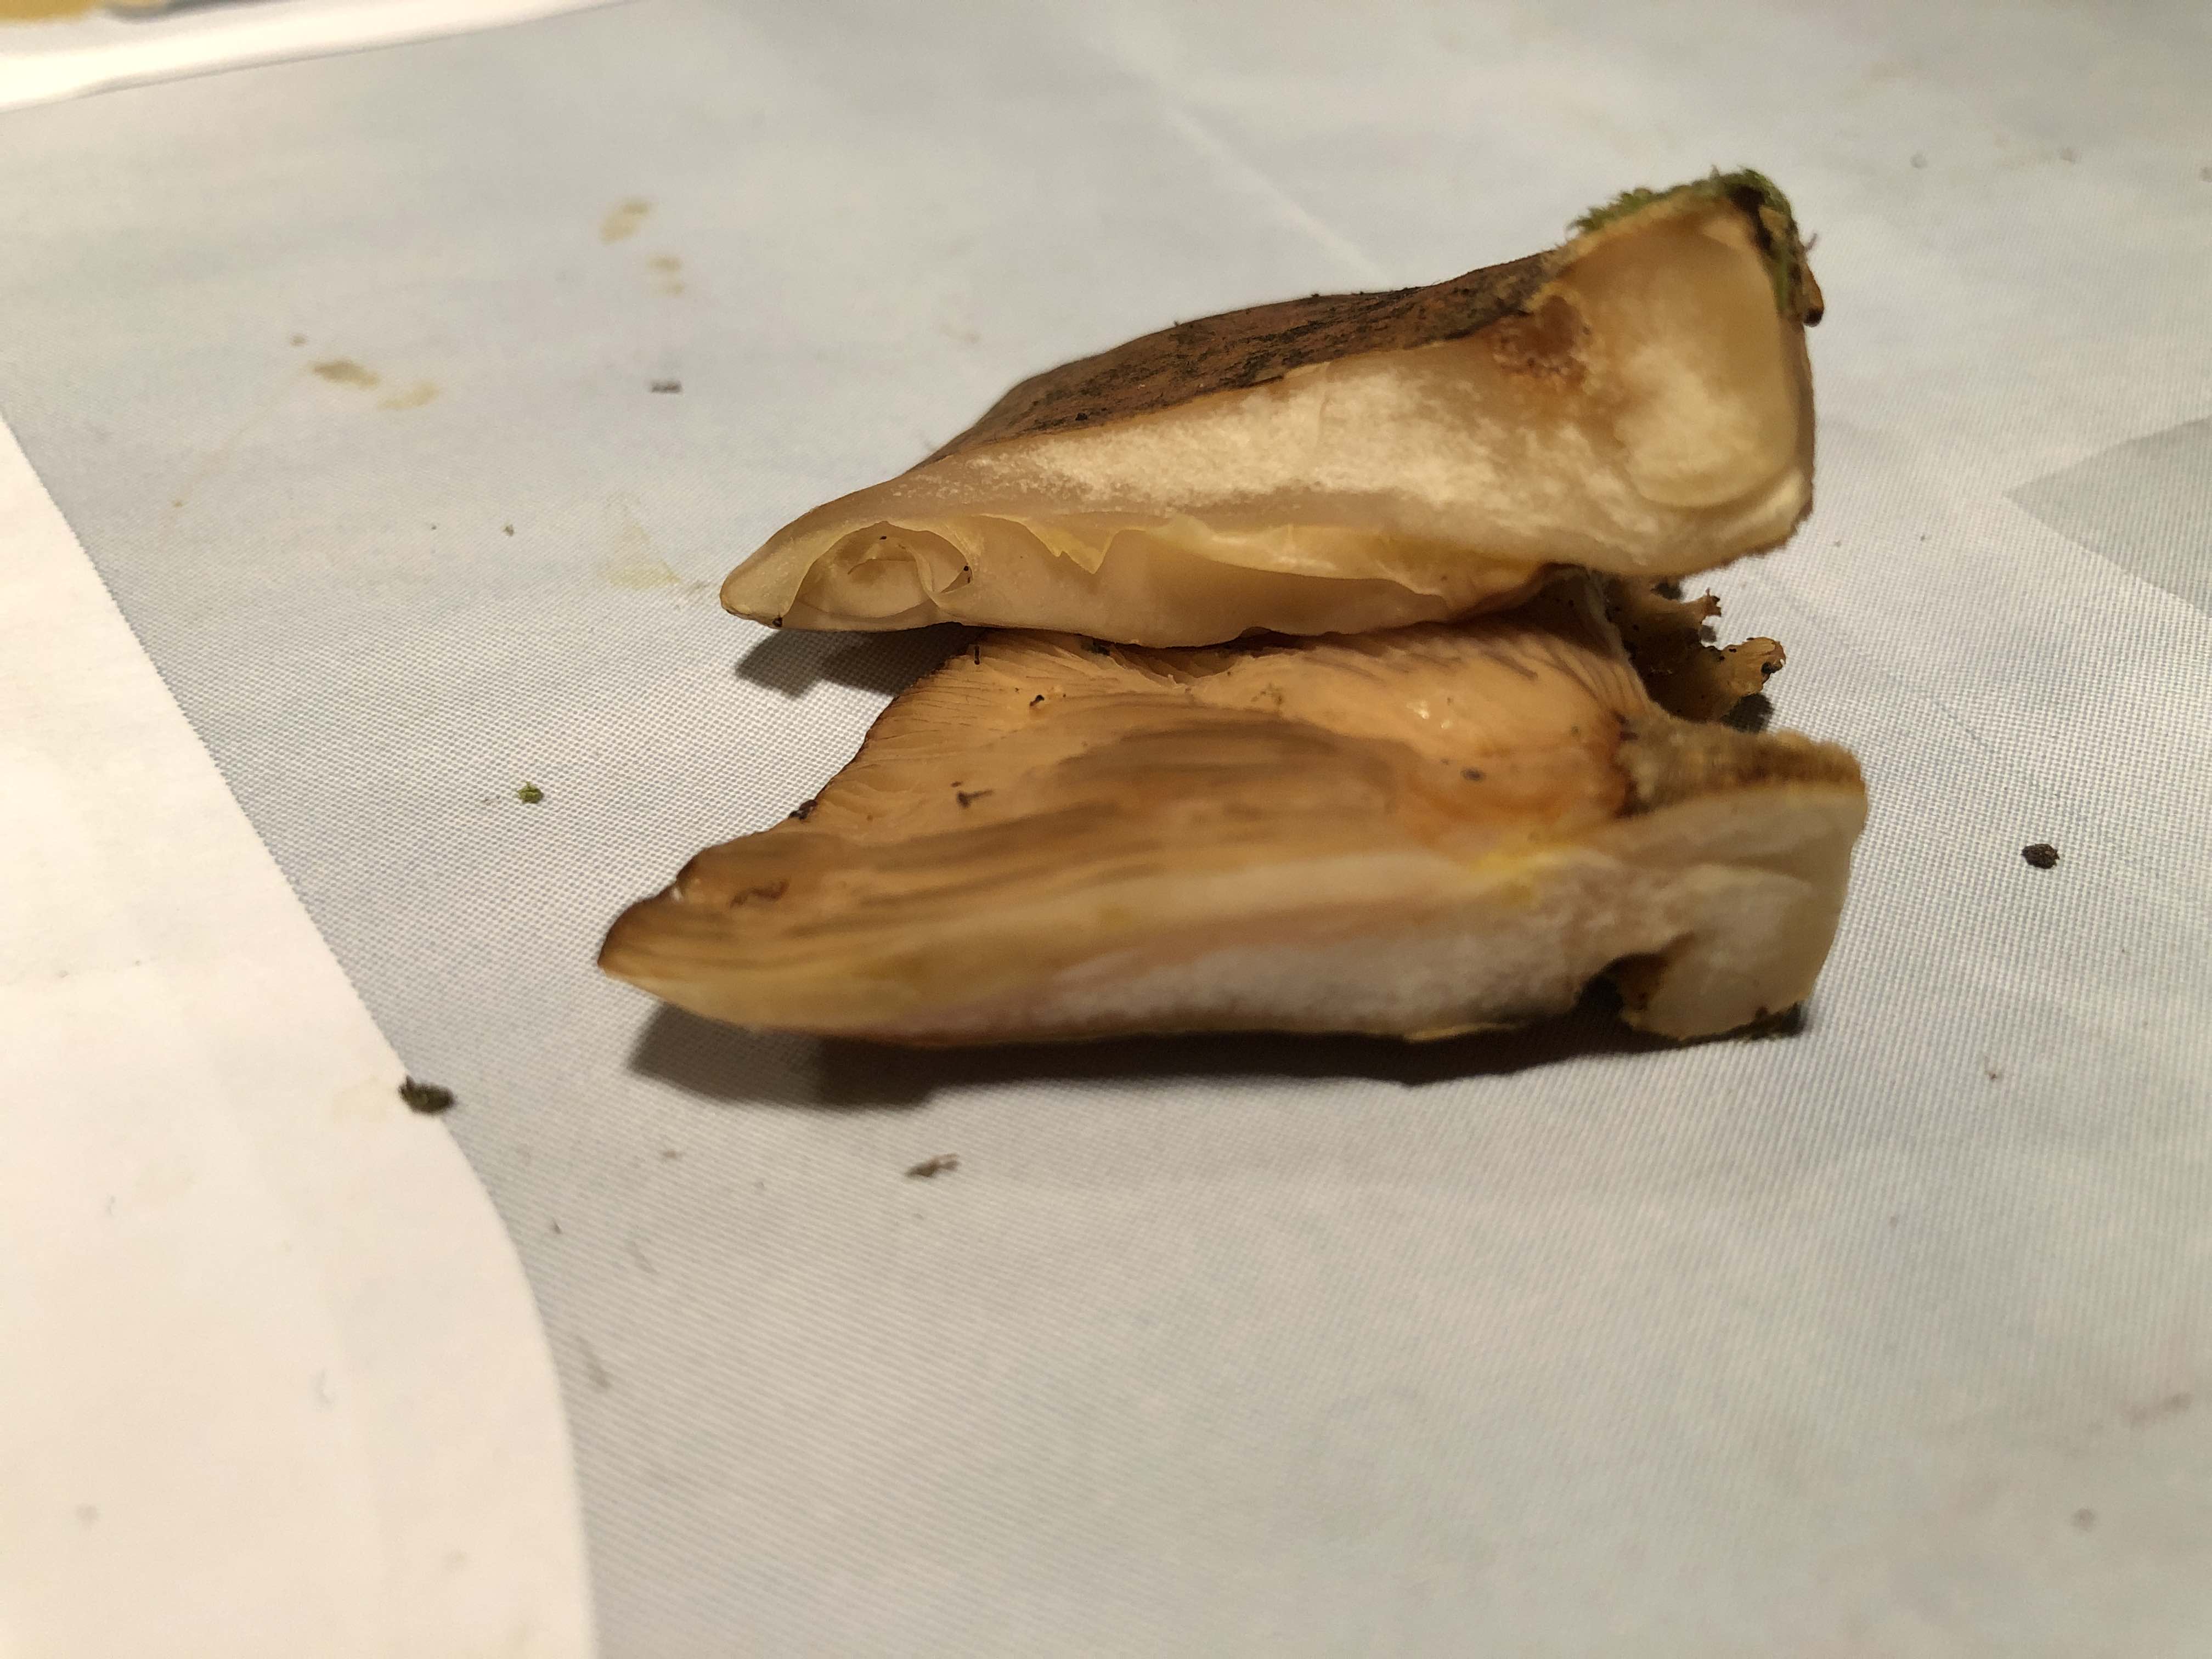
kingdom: Fungi
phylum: Basidiomycota
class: Agaricomycetes
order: Agaricales
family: Sarcomyxaceae
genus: Sarcomyxa
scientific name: Sarcomyxa serotina
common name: gummihat
